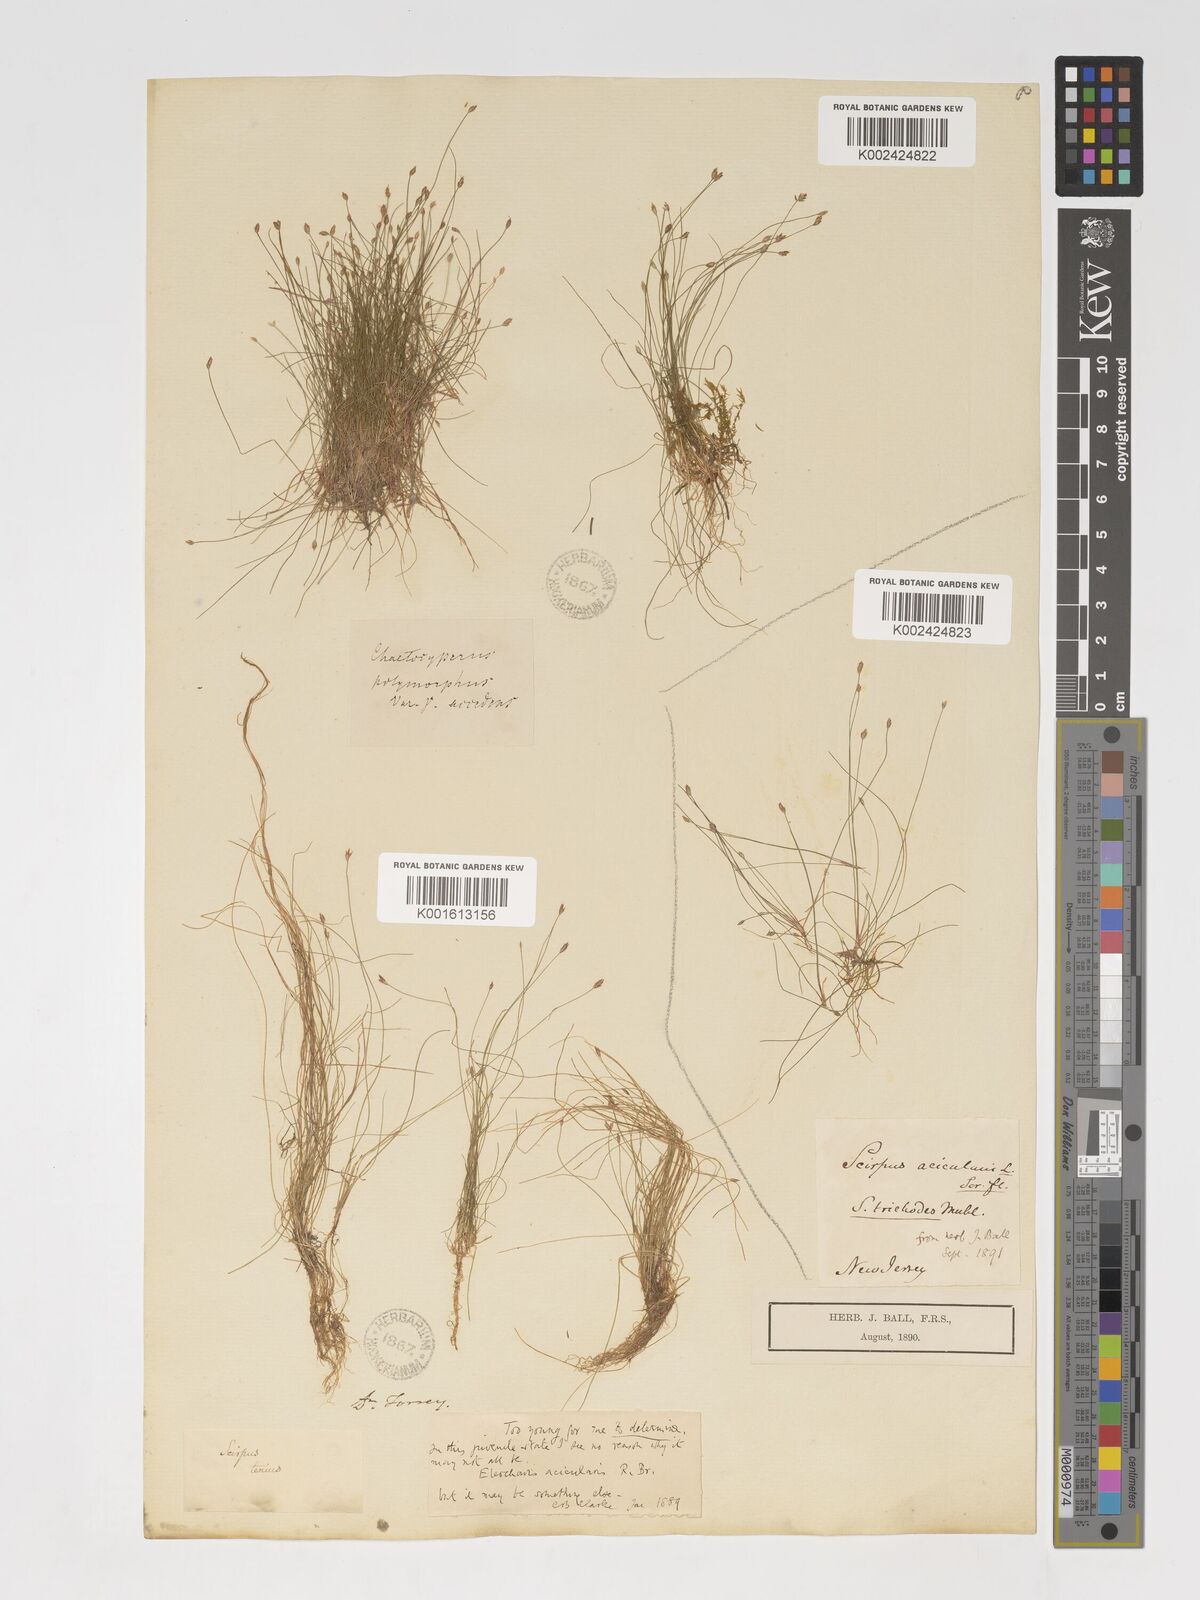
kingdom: Plantae
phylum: Tracheophyta
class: Liliopsida
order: Poales
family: Cyperaceae
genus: Eleocharis
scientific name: Eleocharis acicularis
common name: Needle spike-rush
